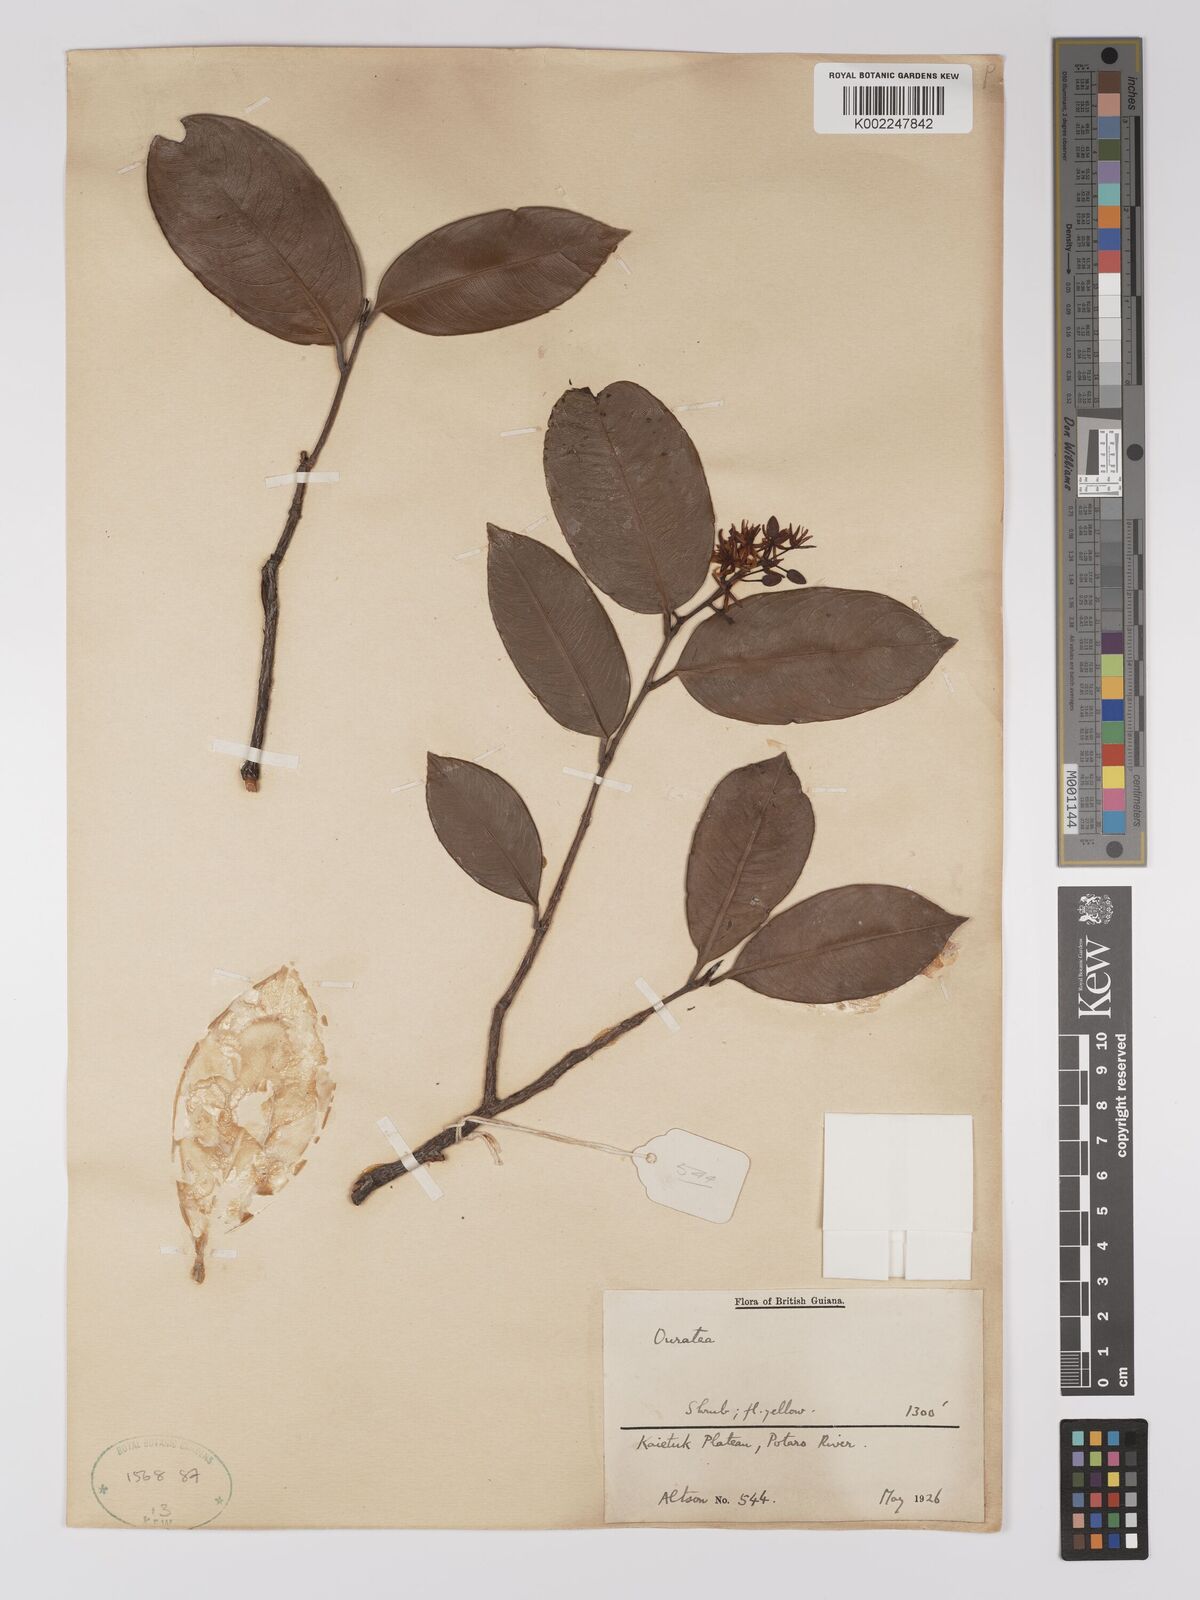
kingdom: Plantae
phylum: Tracheophyta
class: Magnoliopsida
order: Malpighiales
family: Ochnaceae
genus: Ouratea
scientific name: Ouratea
